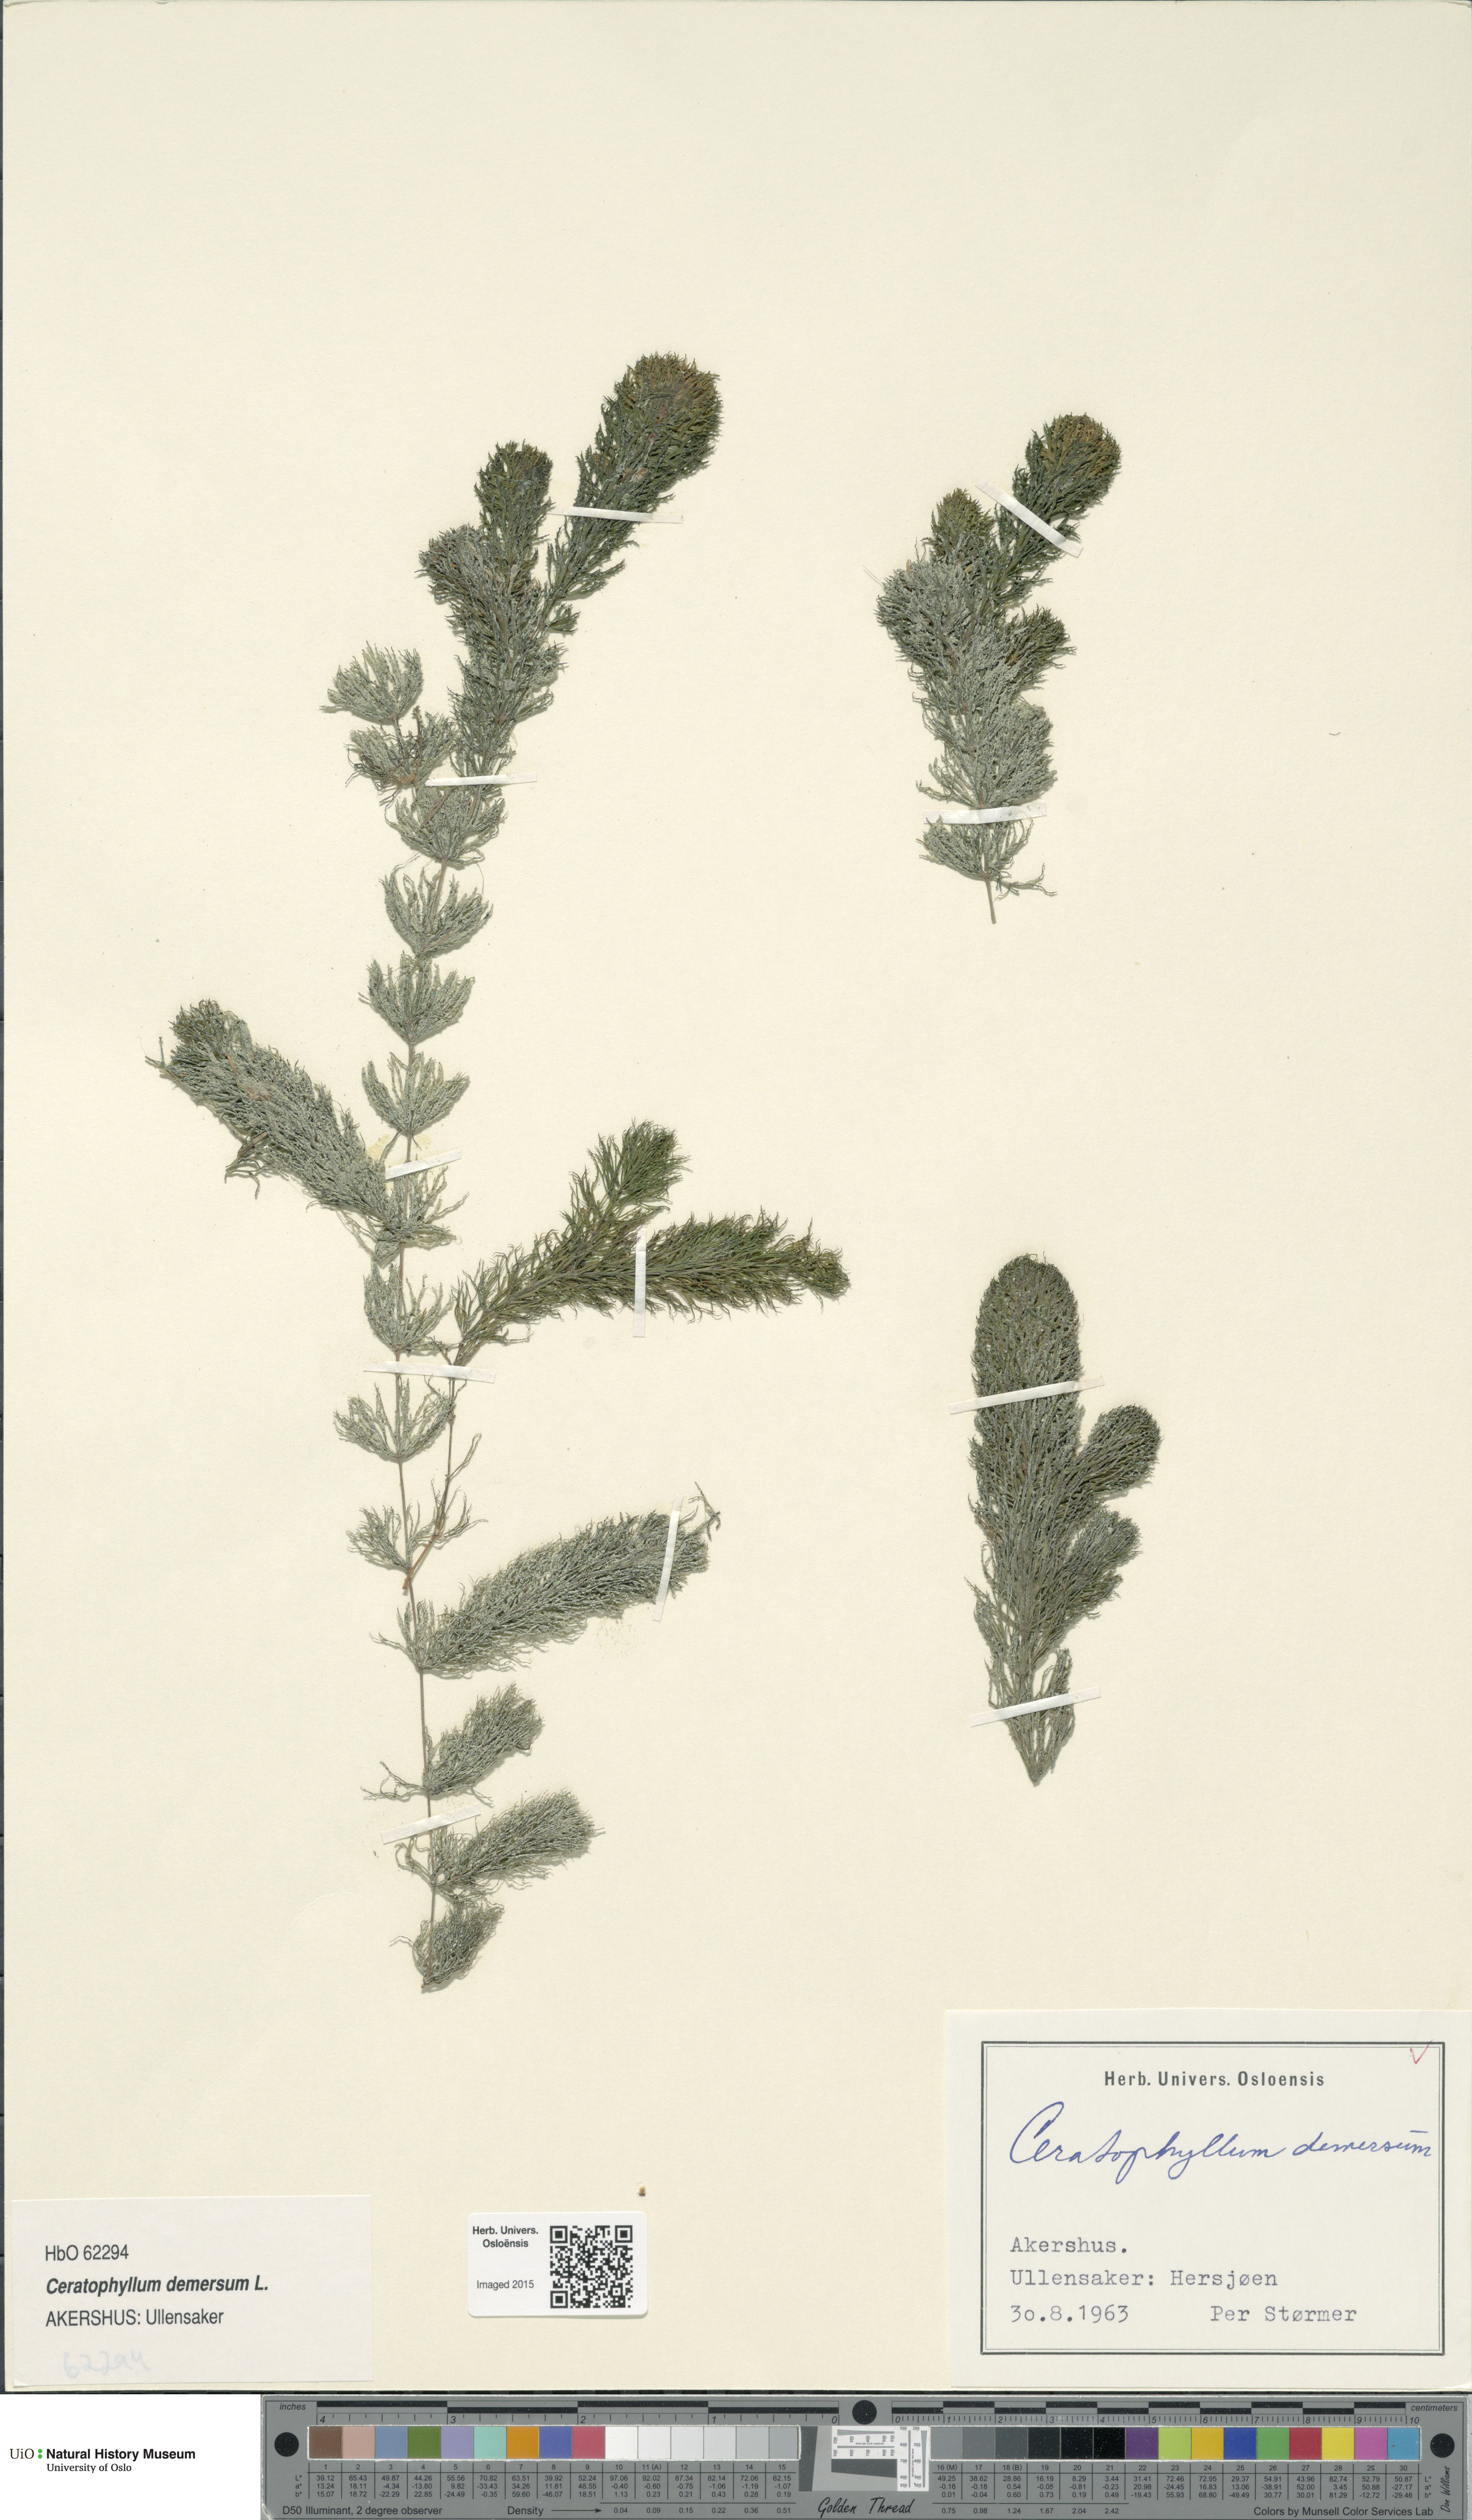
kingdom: Plantae
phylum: Tracheophyta
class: Magnoliopsida
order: Ceratophyllales
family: Ceratophyllaceae
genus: Ceratophyllum
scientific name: Ceratophyllum demersum
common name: Rigid hornwort
